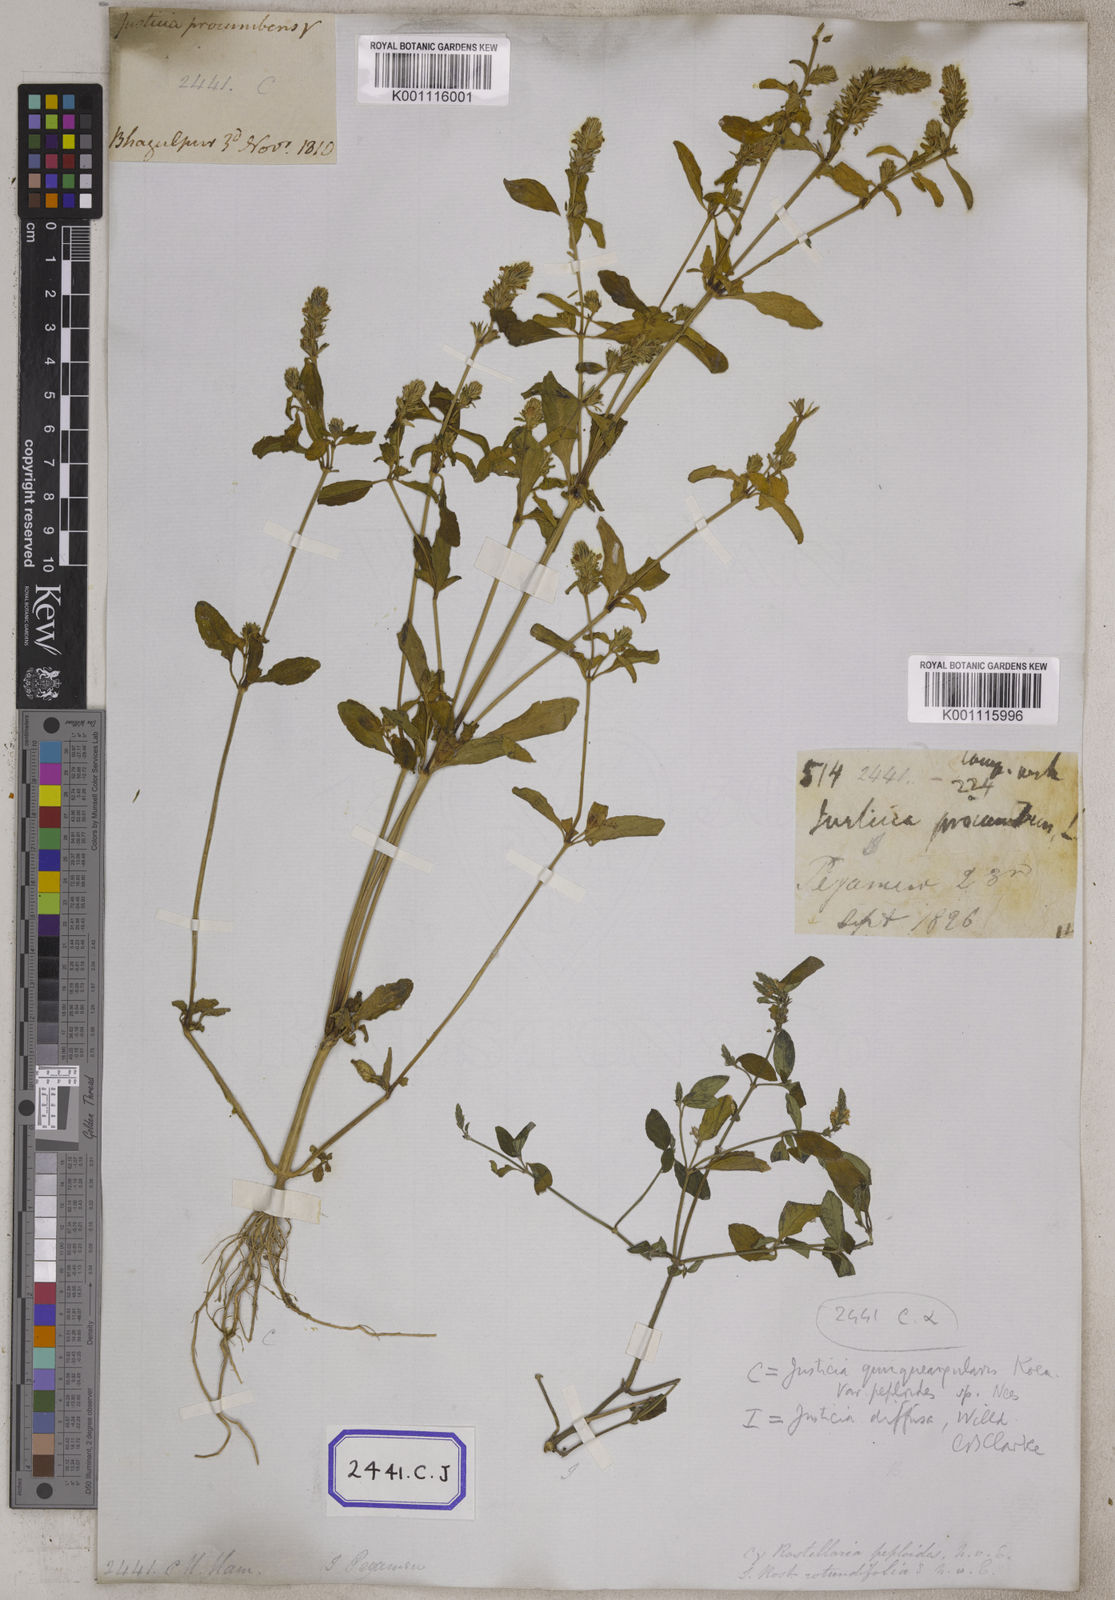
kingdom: Plantae
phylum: Tracheophyta
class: Magnoliopsida
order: Lamiales
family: Acanthaceae
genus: Rostellularia
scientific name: Rostellularia procumbens
